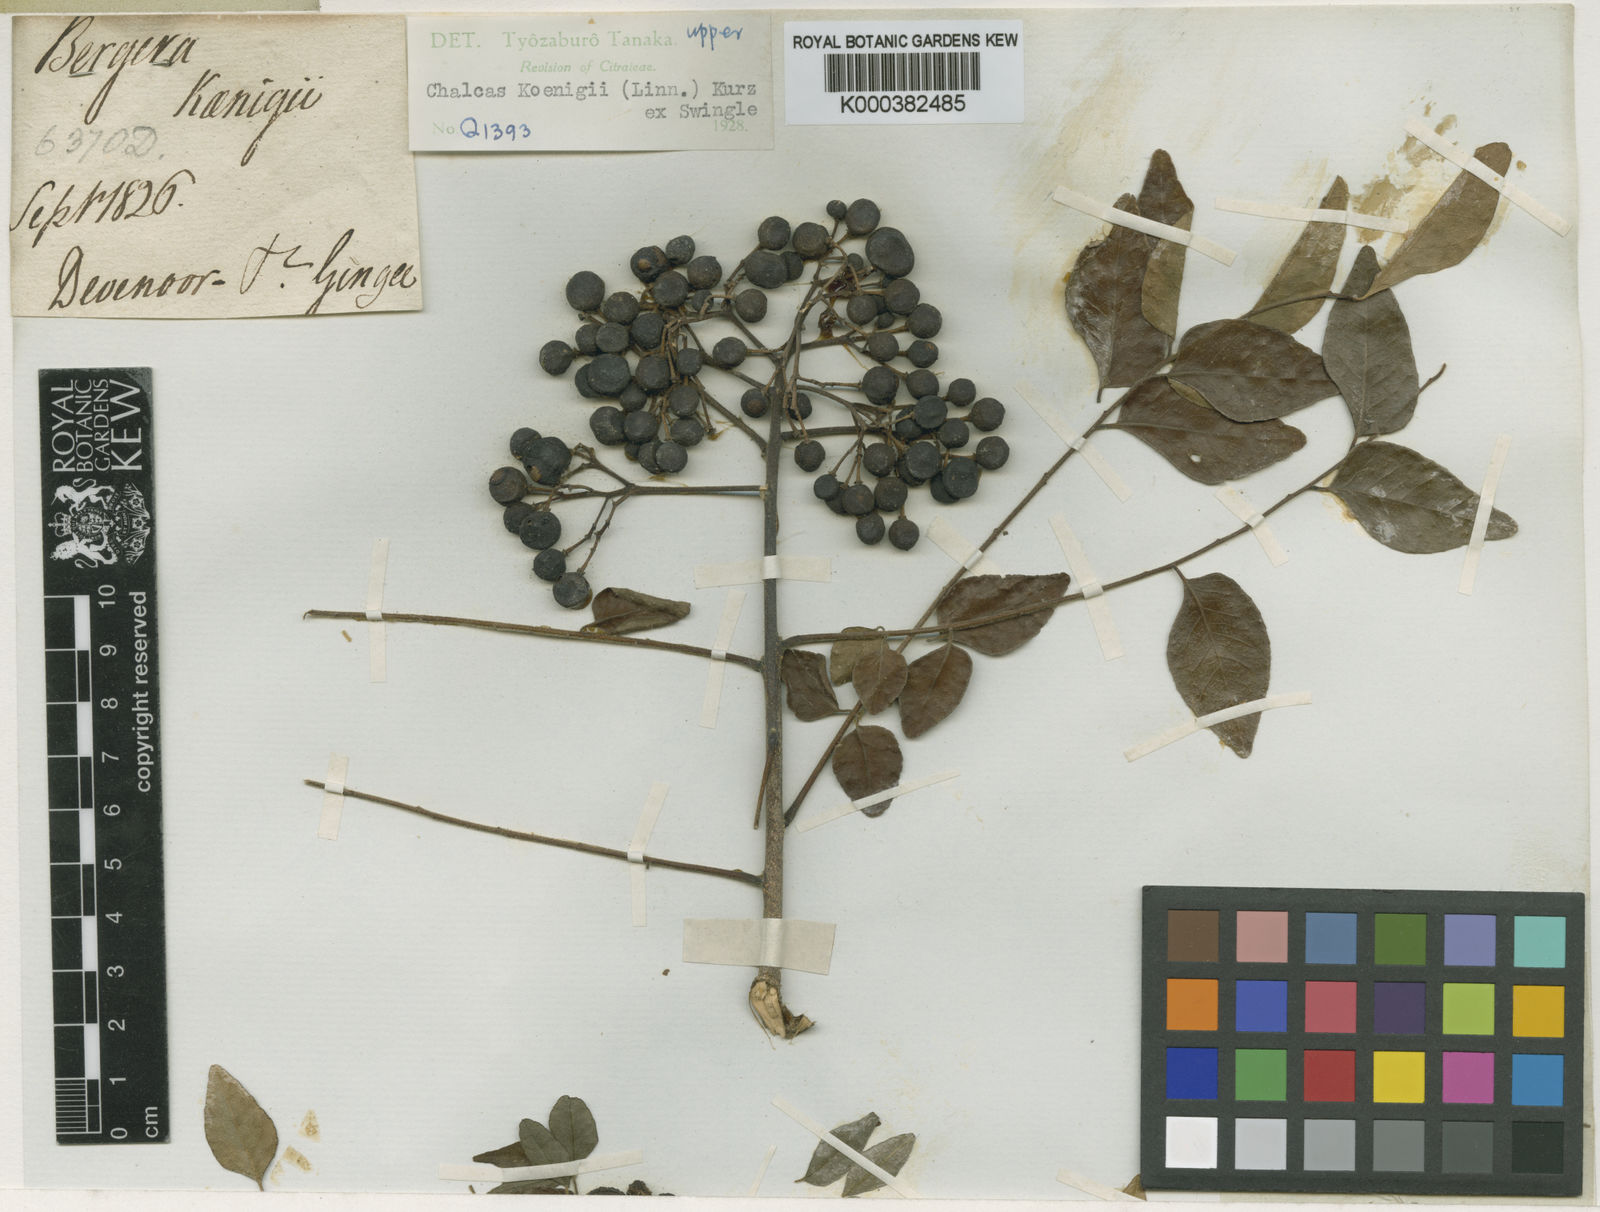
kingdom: Plantae
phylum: Tracheophyta
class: Magnoliopsida
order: Sapindales
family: Rutaceae
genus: Murraya
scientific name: Murraya koenigii
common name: Curry-plant
